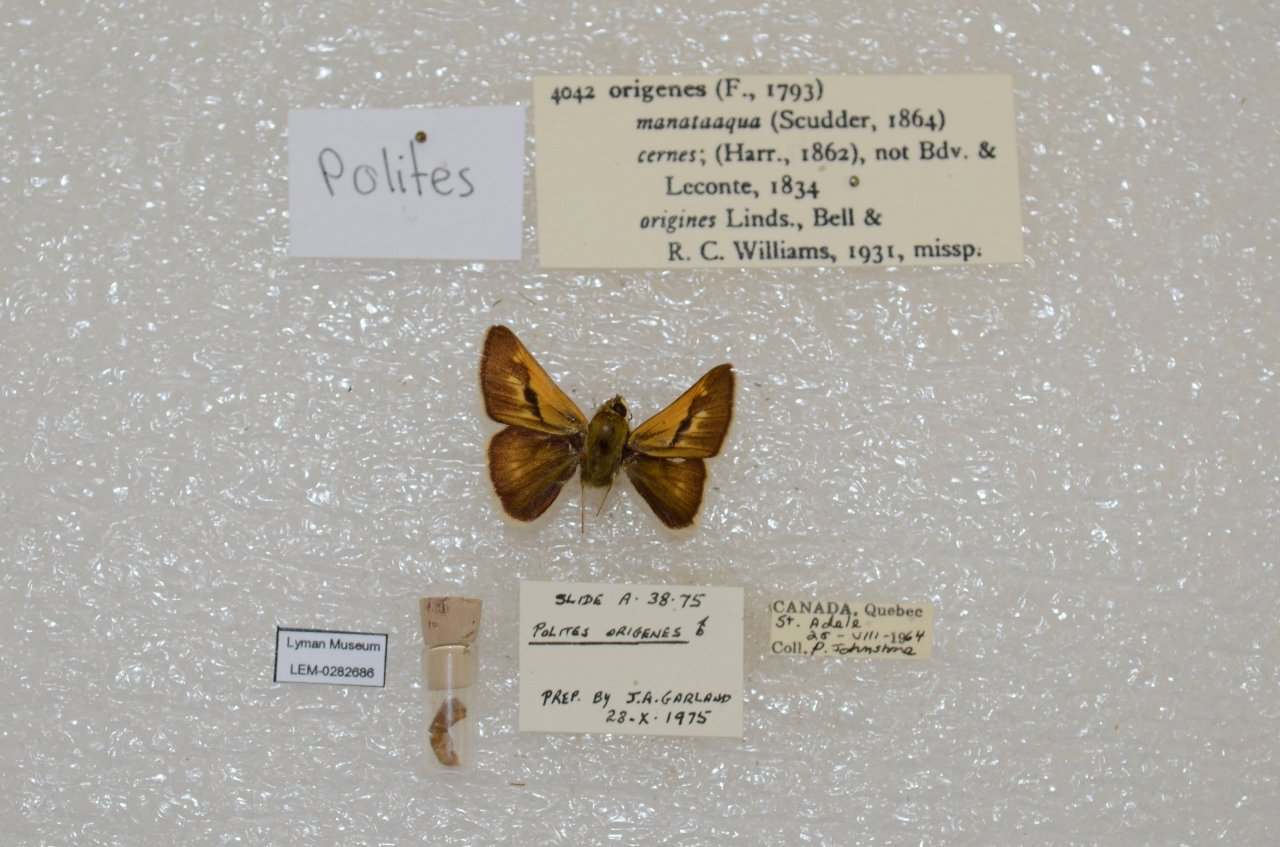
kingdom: Animalia
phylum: Arthropoda
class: Insecta
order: Lepidoptera
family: Hesperiidae
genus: Polites
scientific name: Polites
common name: Crossline Skipper
